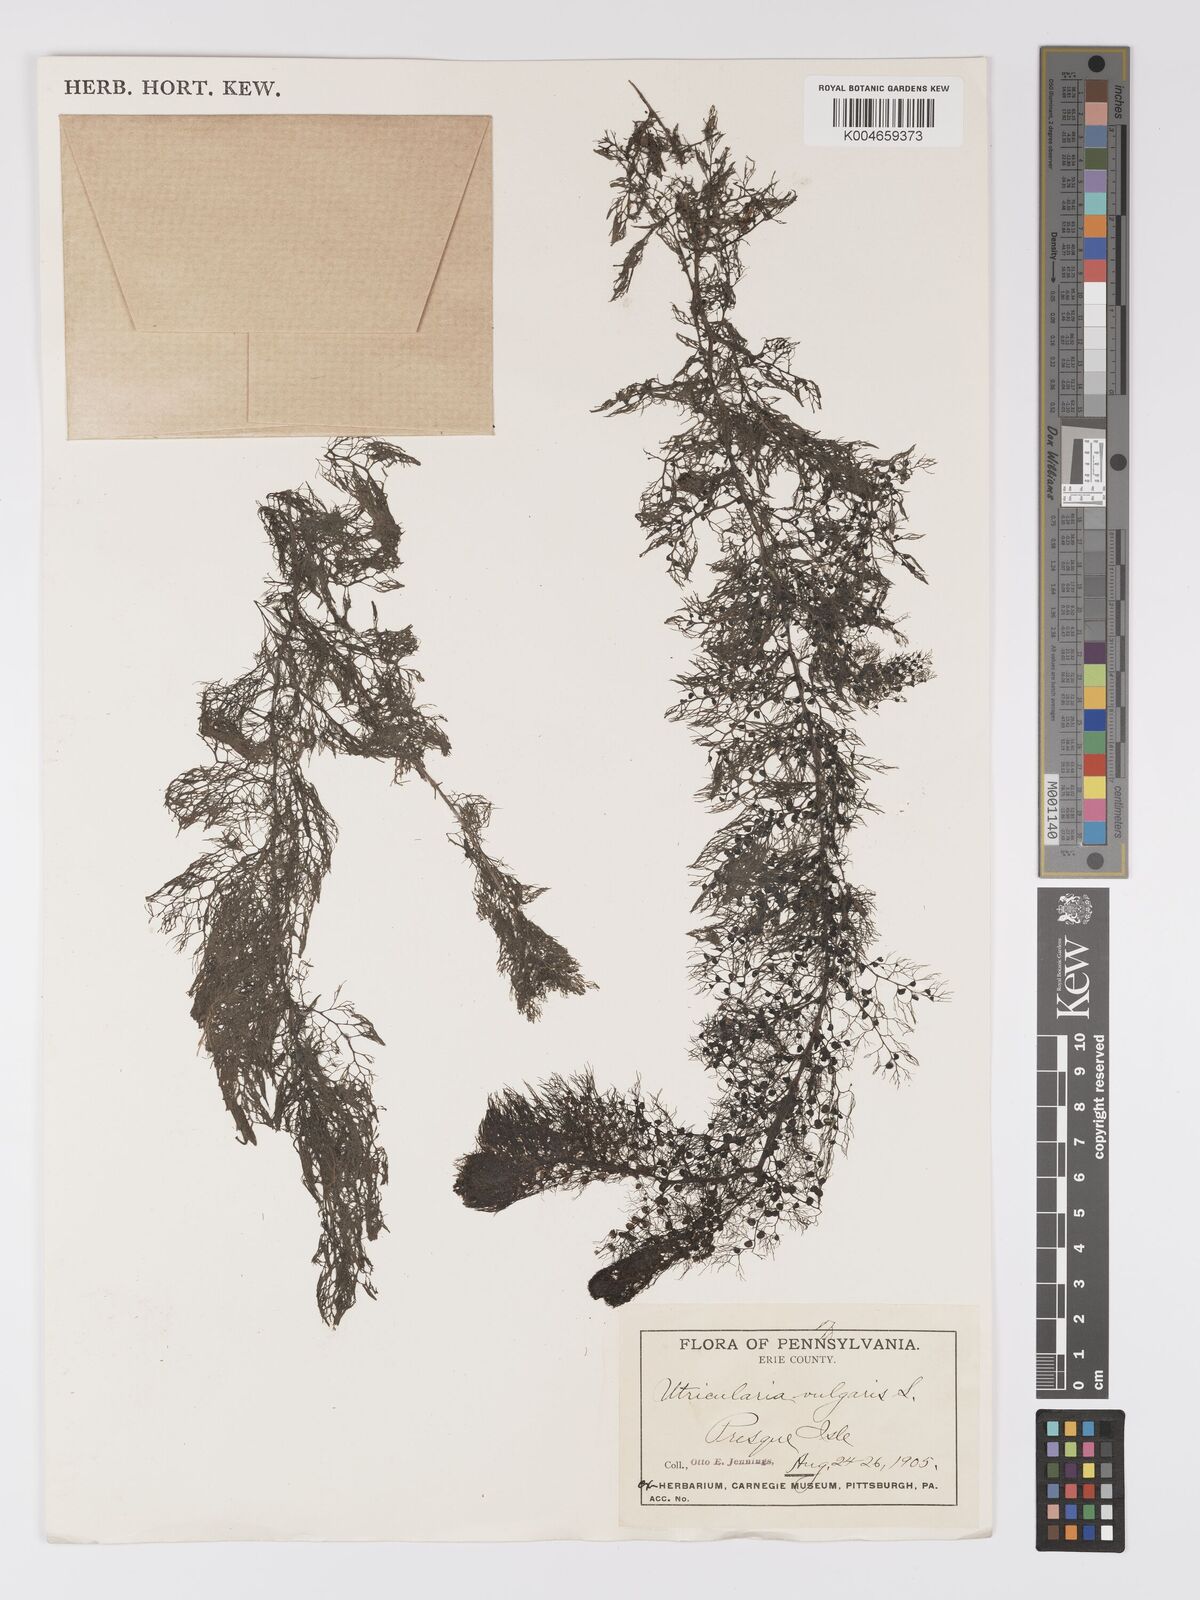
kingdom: Plantae
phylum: Tracheophyta
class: Magnoliopsida
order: Lamiales
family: Lentibulariaceae
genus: Utricularia
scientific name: Utricularia macrorhiza
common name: Common bladderwort
